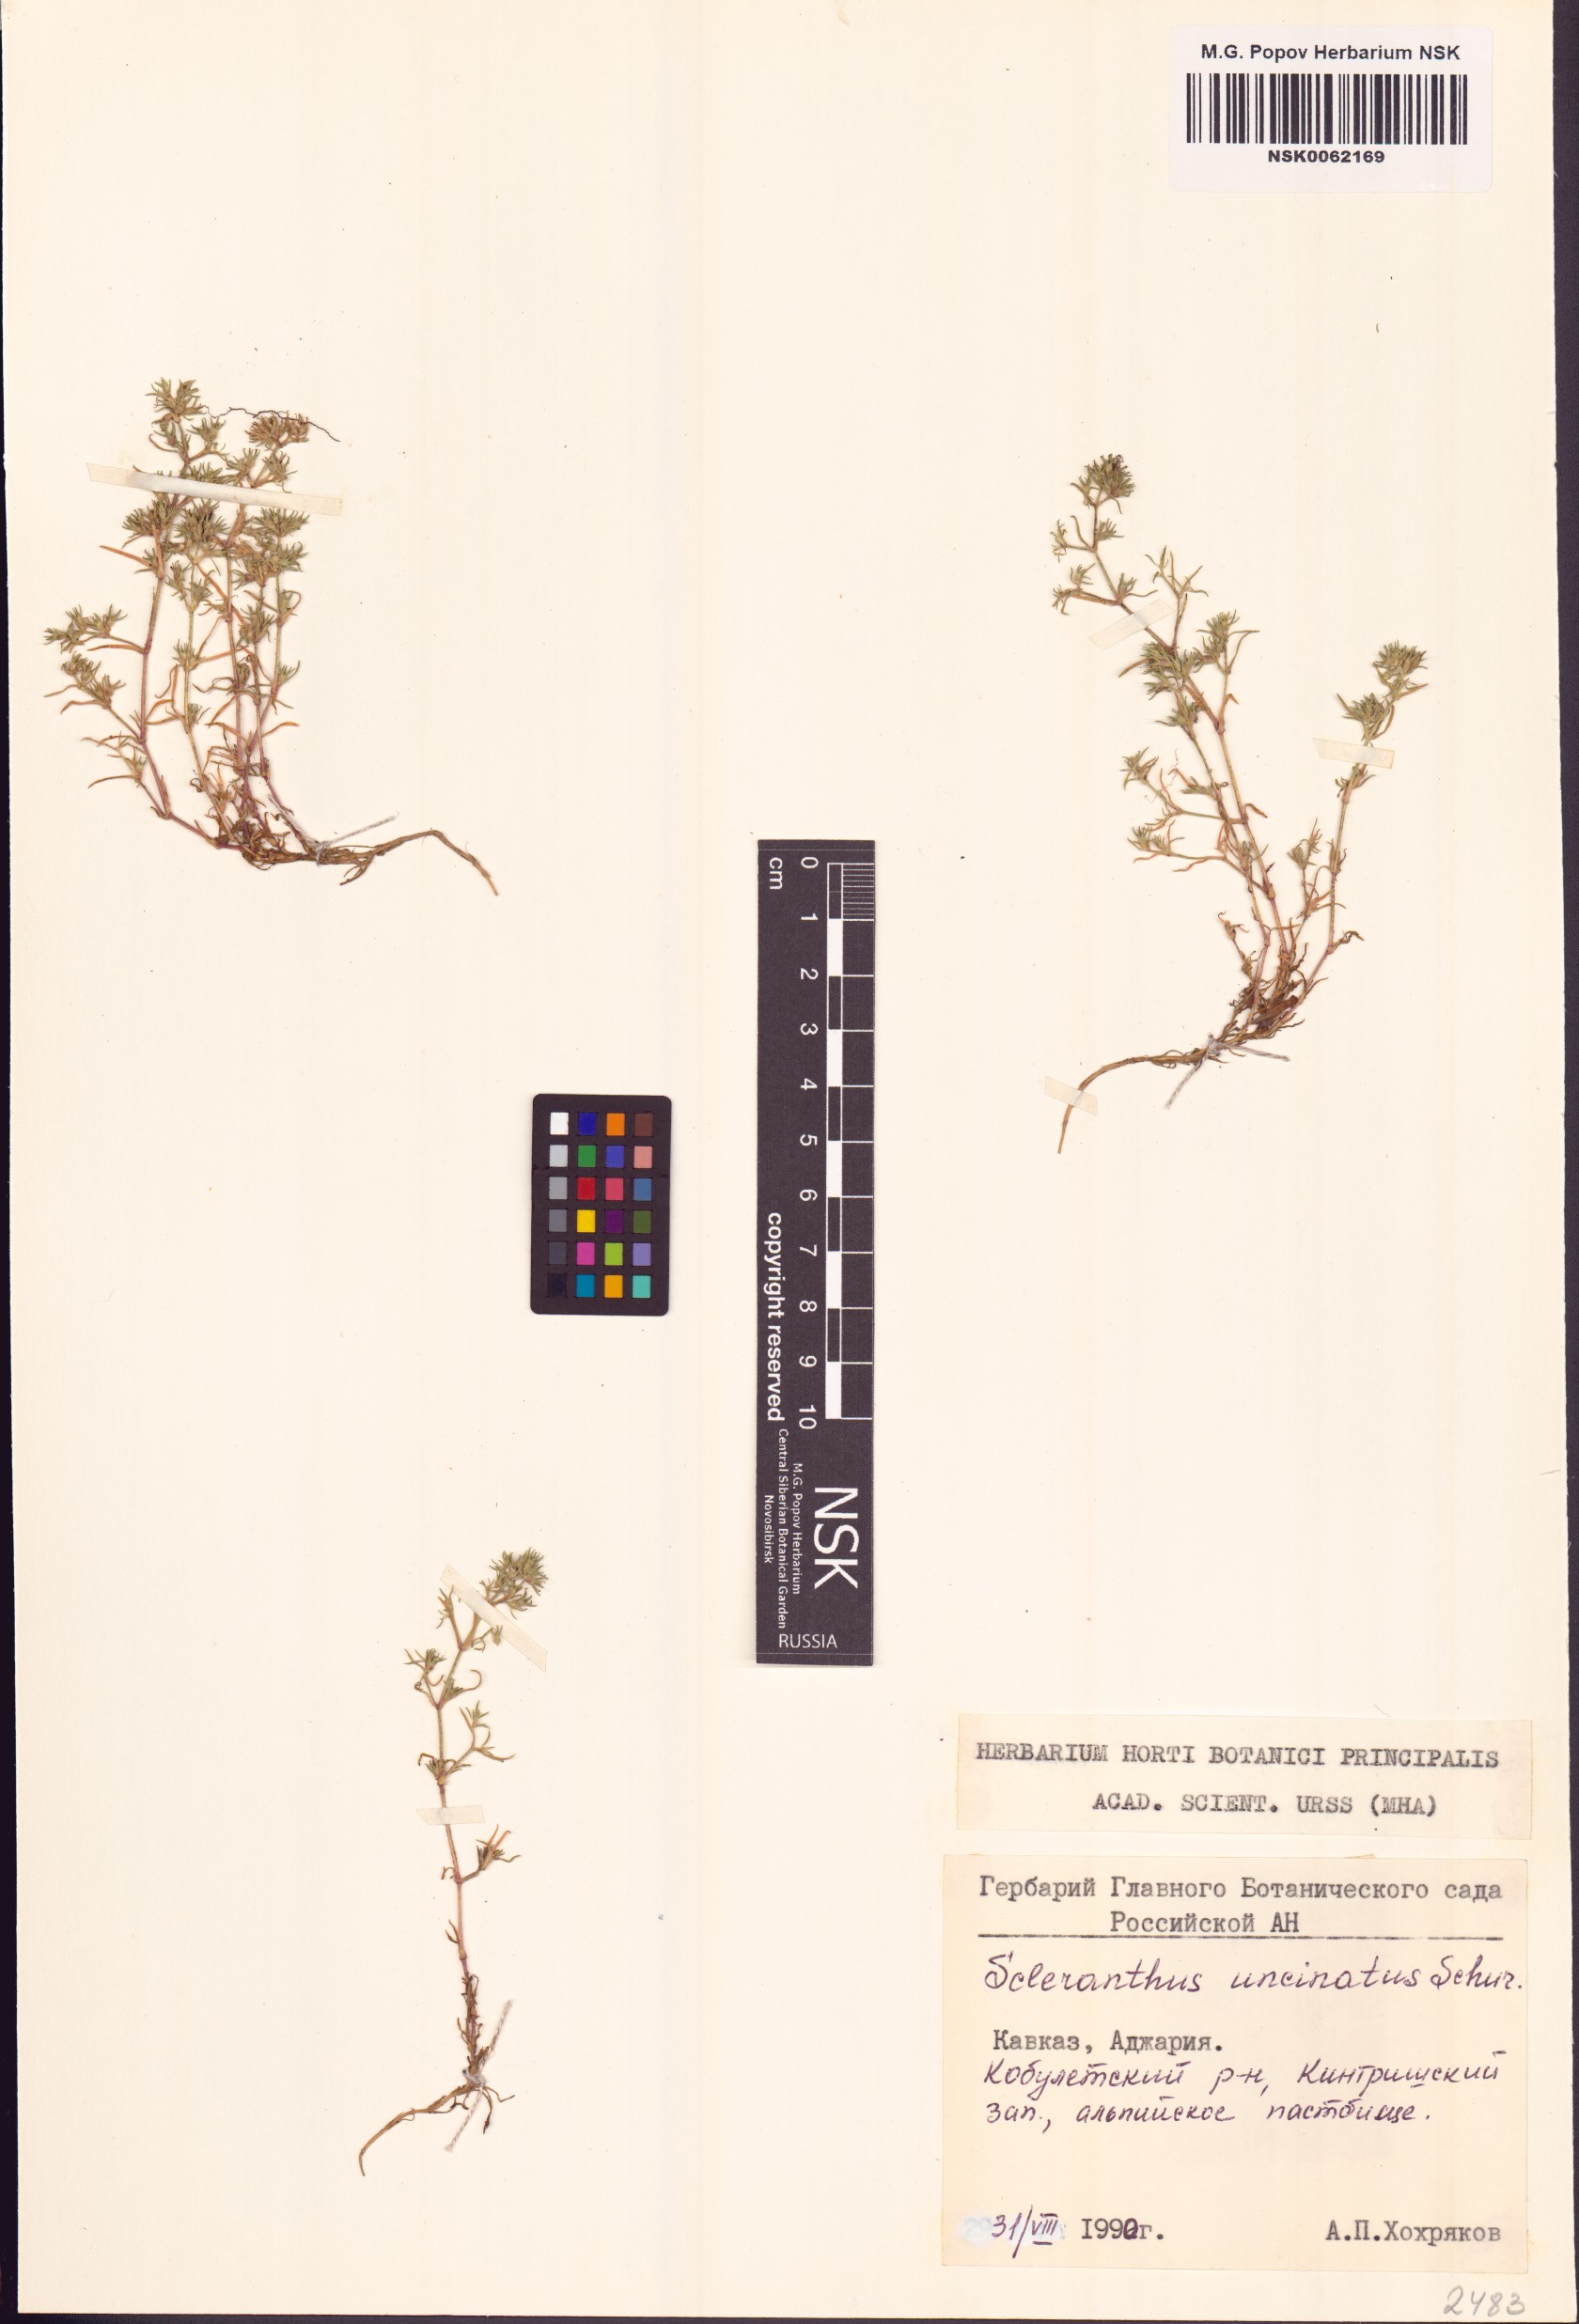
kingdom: Plantae
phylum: Tracheophyta
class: Magnoliopsida
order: Caryophyllales
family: Caryophyllaceae
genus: Scleranthus
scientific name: Scleranthus
